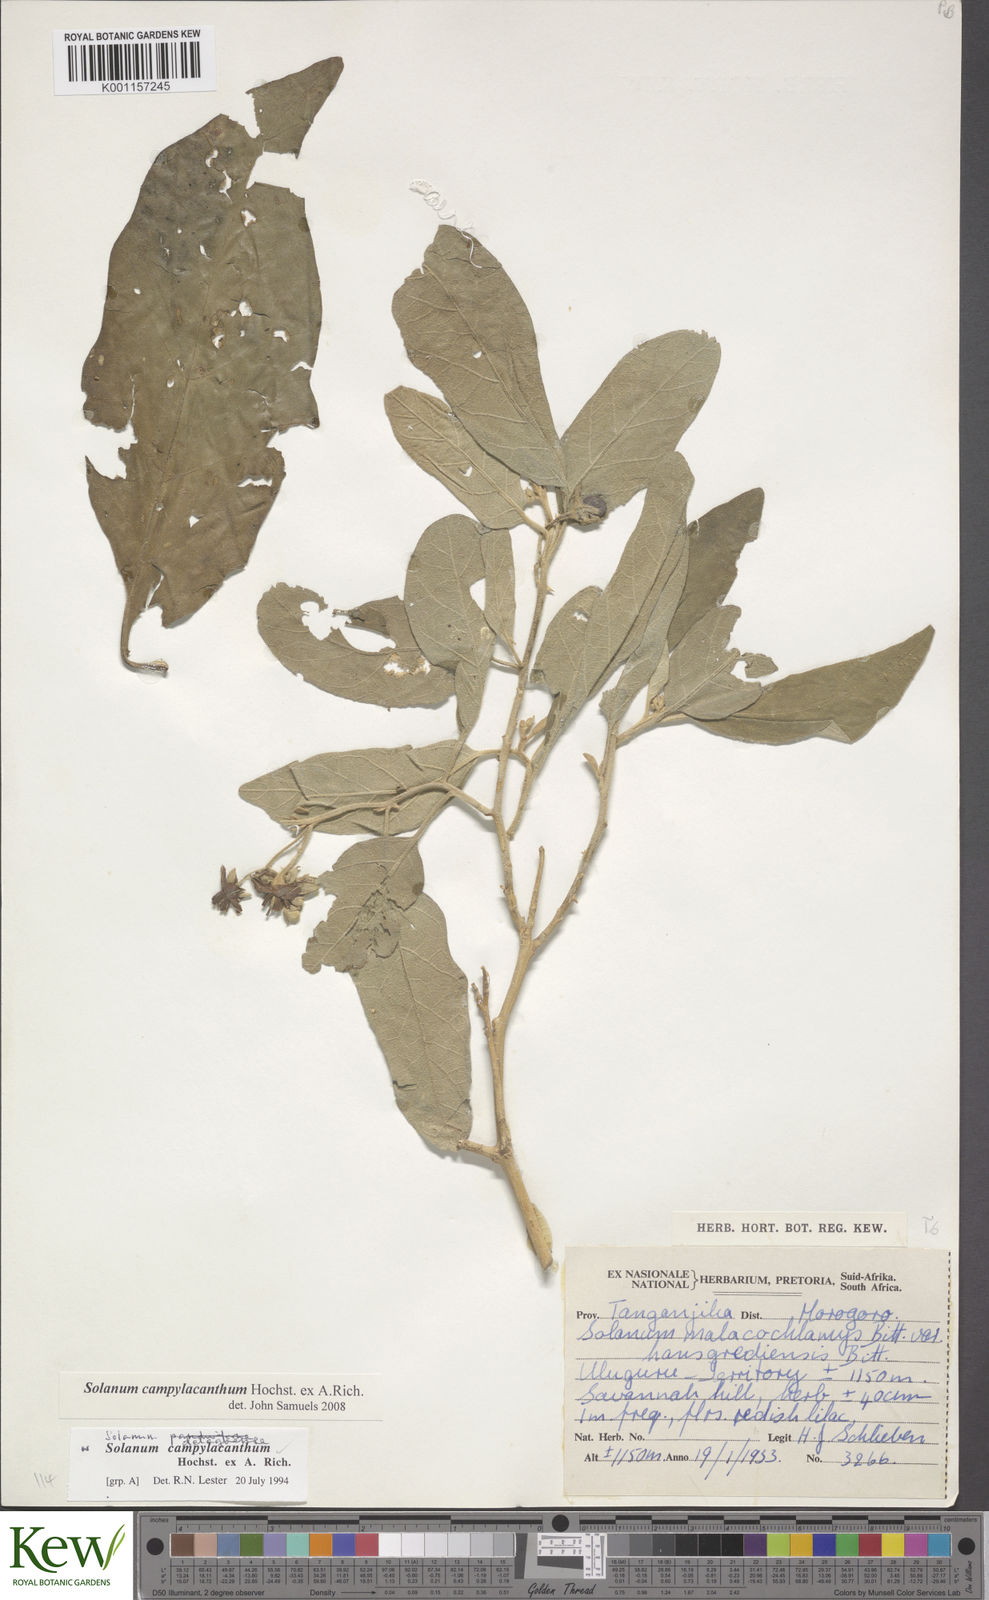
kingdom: Plantae
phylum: Tracheophyta
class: Magnoliopsida
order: Solanales
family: Solanaceae
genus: Solanum
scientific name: Solanum campylacanthum
